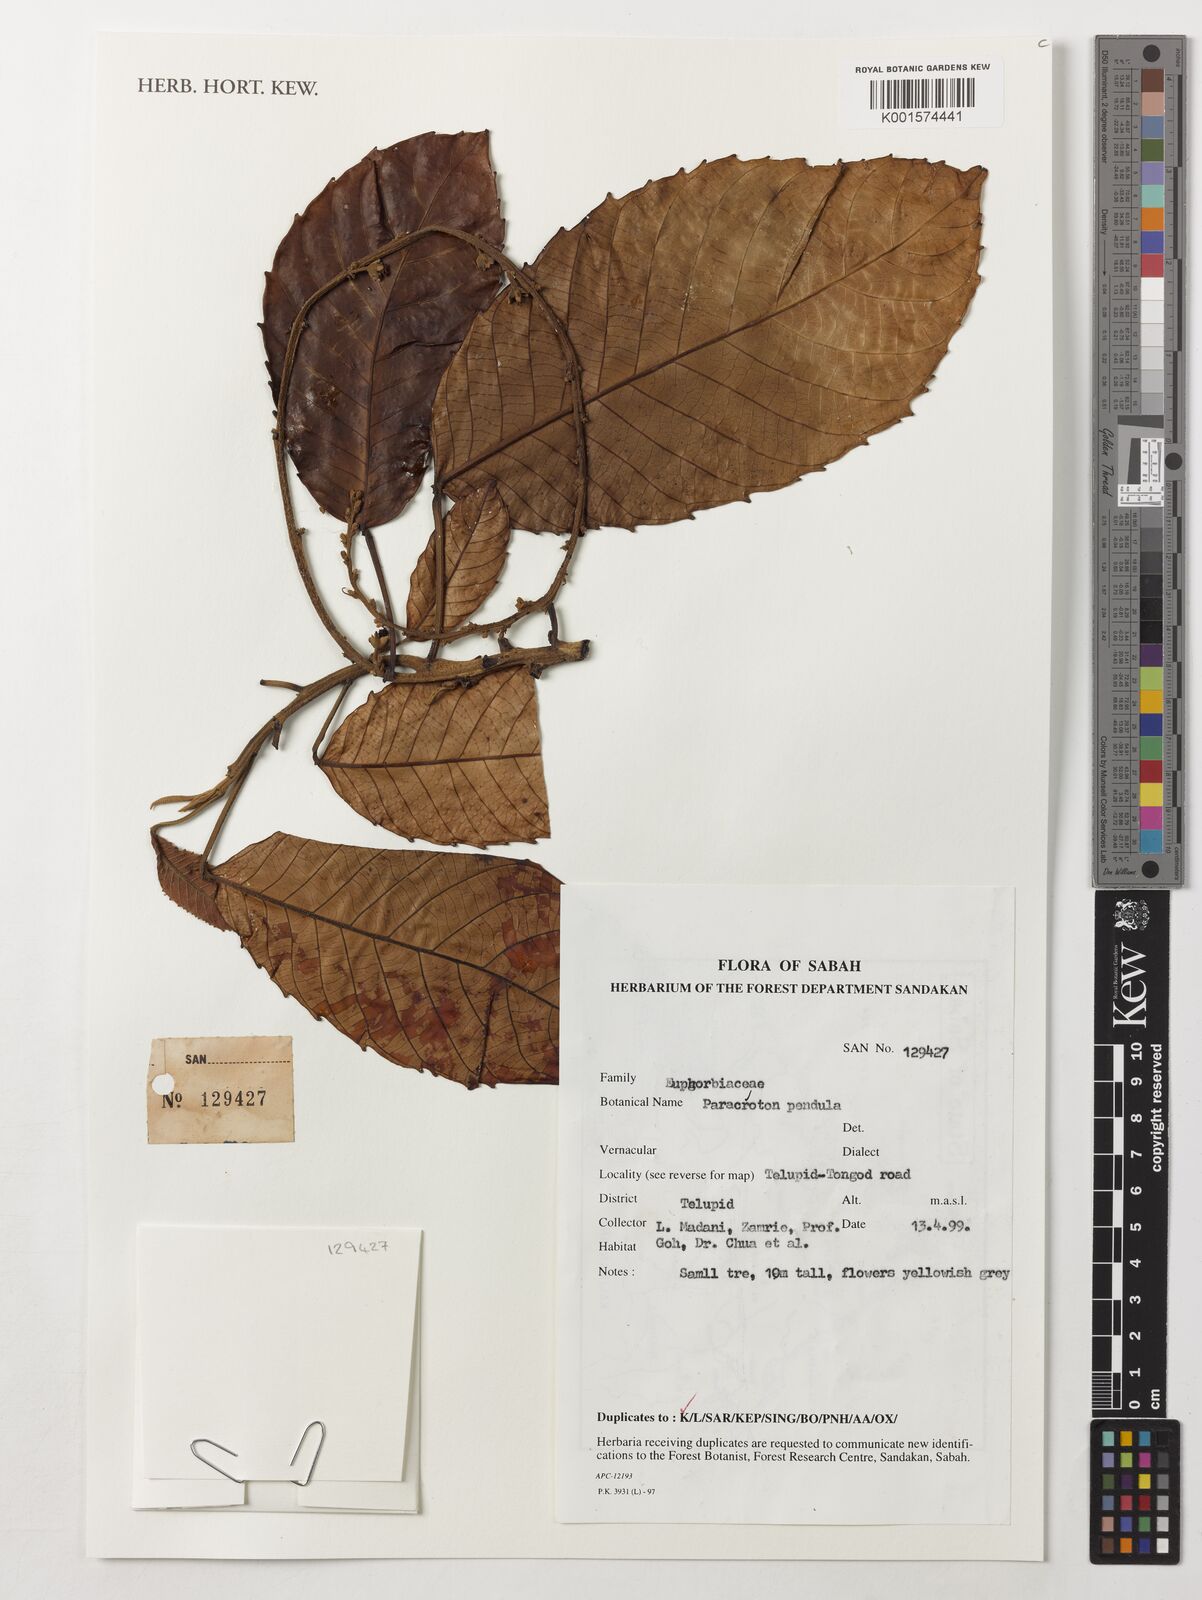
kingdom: Plantae
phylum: Tracheophyta
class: Magnoliopsida
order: Malpighiales
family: Euphorbiaceae
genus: Paracroton
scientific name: Paracroton pendulus
